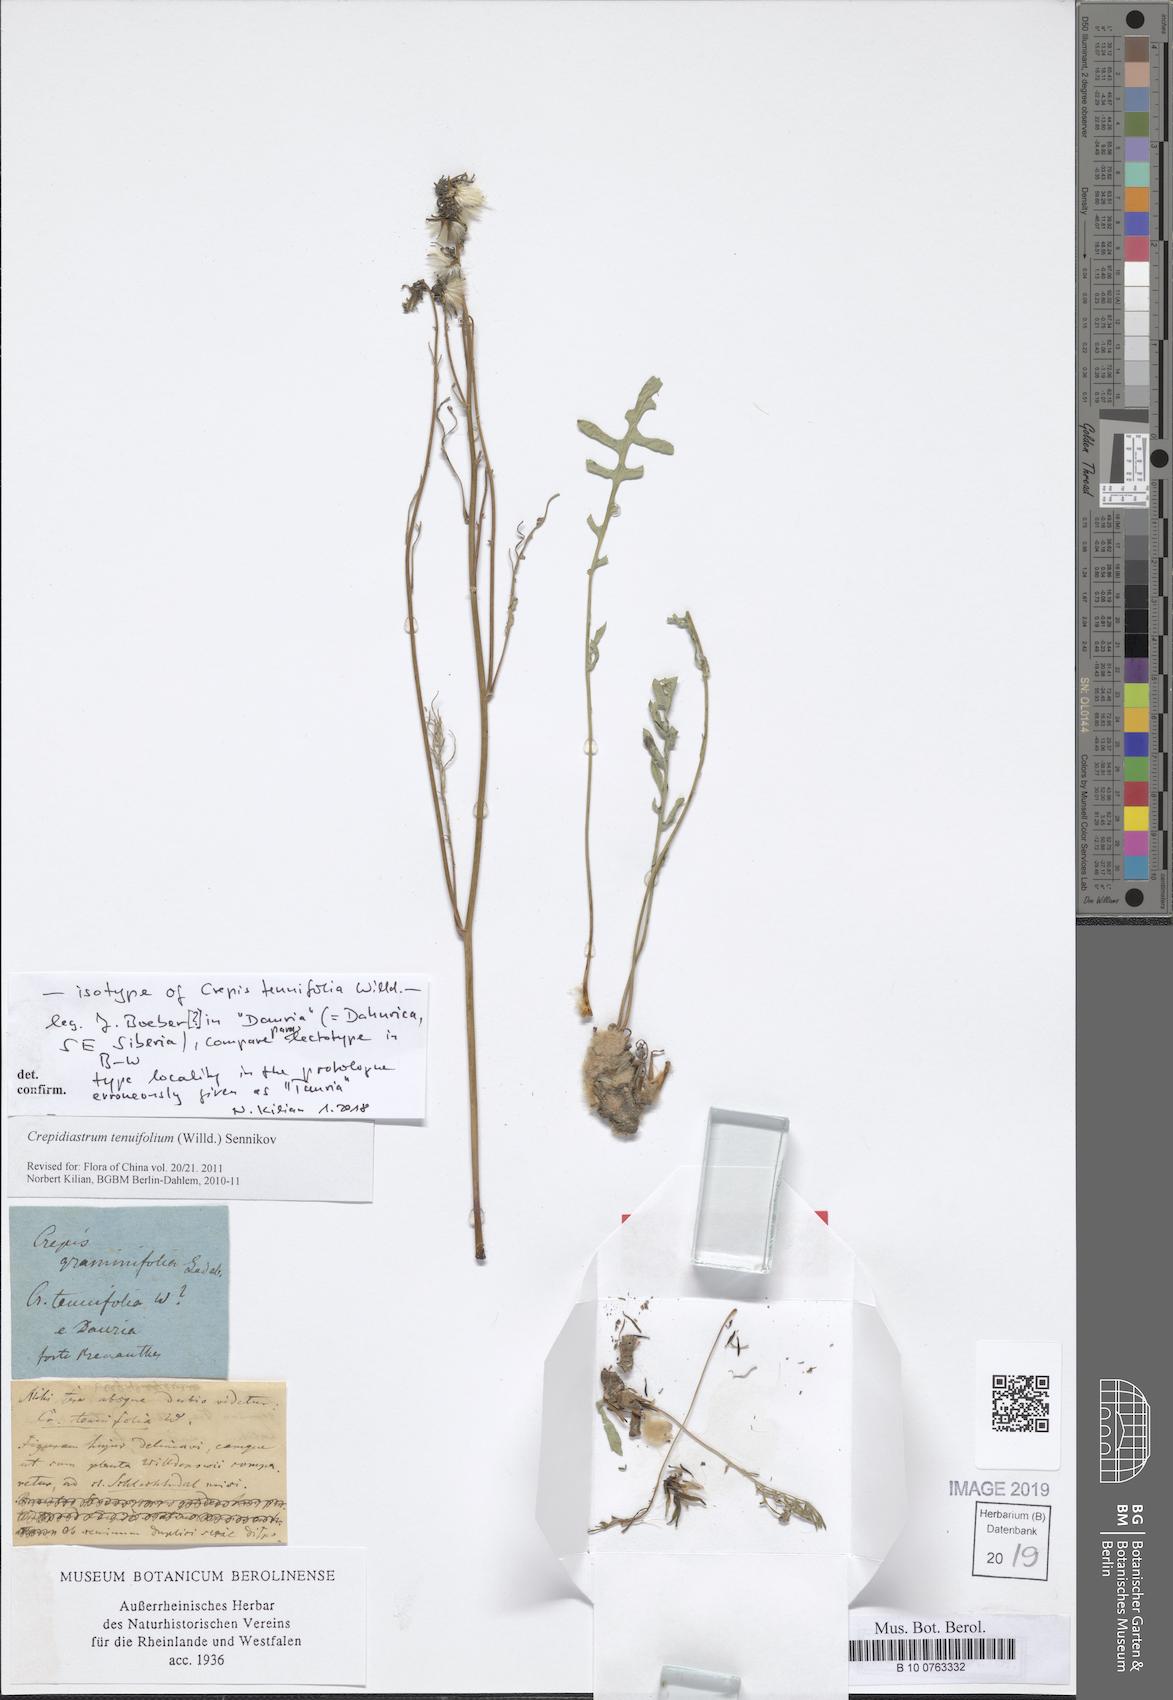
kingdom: Plantae
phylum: Tracheophyta
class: Magnoliopsida
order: Asterales
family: Asteraceae
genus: Crepidiastrum
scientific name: Crepidiastrum tenuifolium
